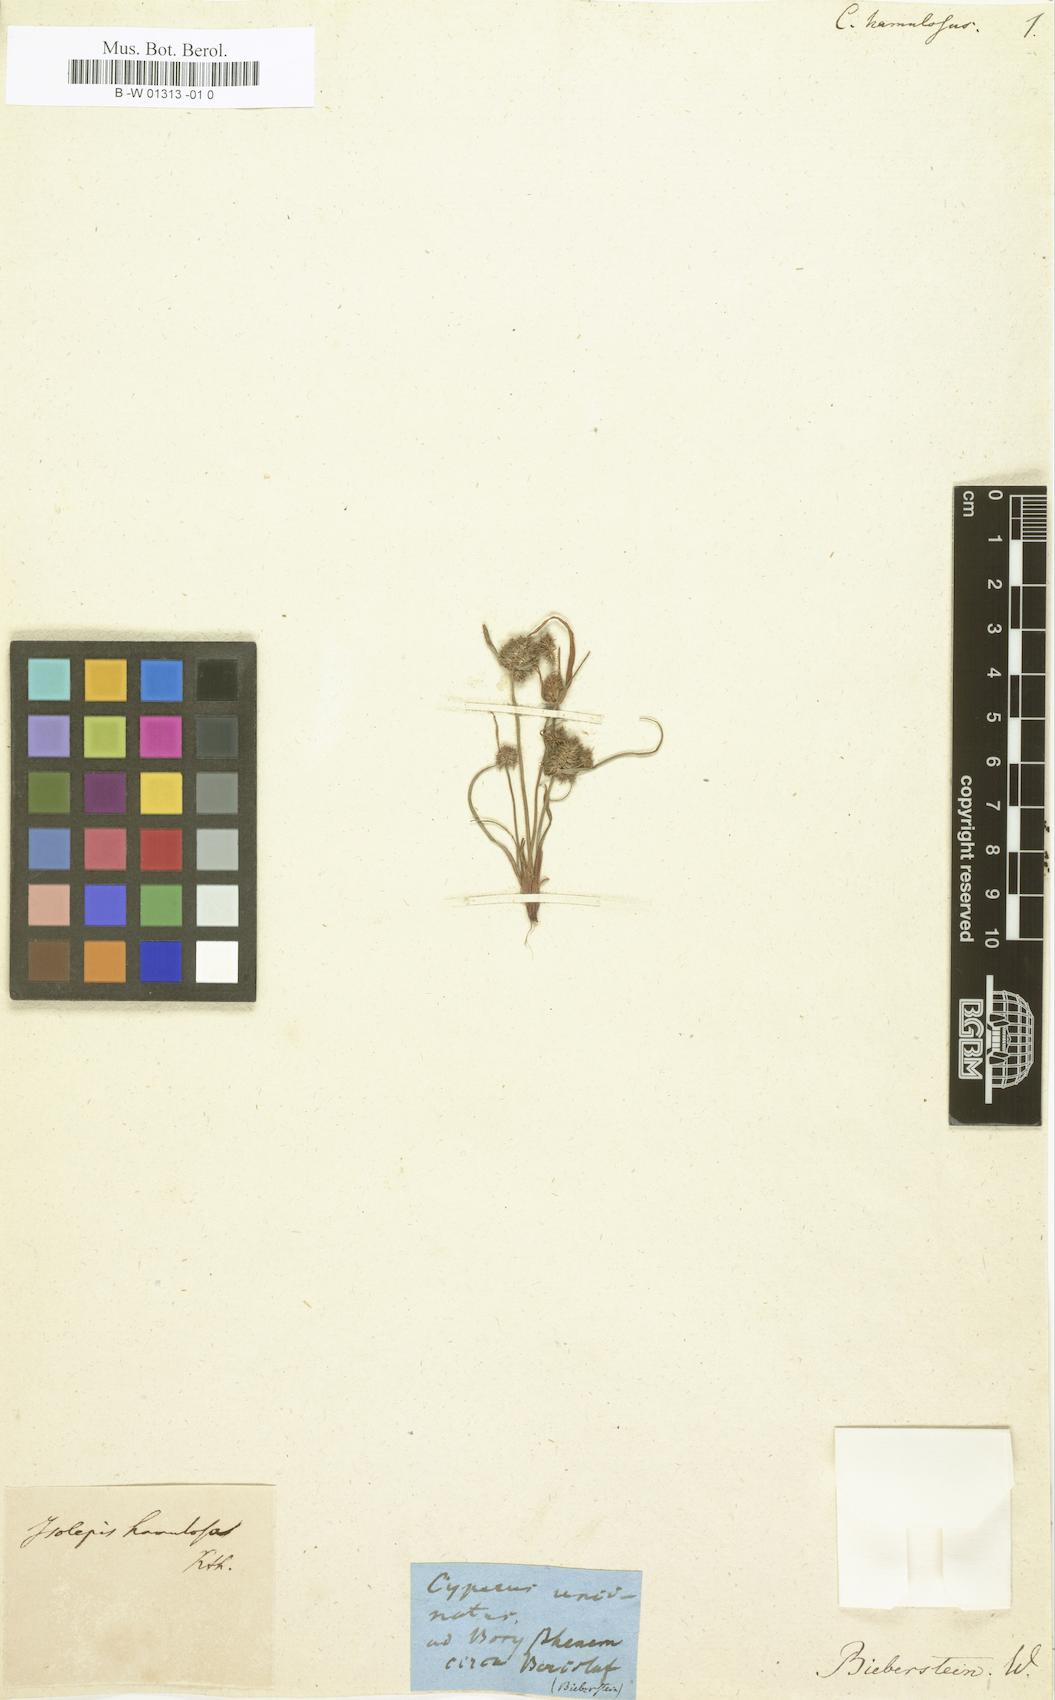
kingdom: Plantae
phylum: Tracheophyta
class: Liliopsida
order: Poales
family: Cyperaceae
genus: Cyperus
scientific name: Cyperus hamulosus
